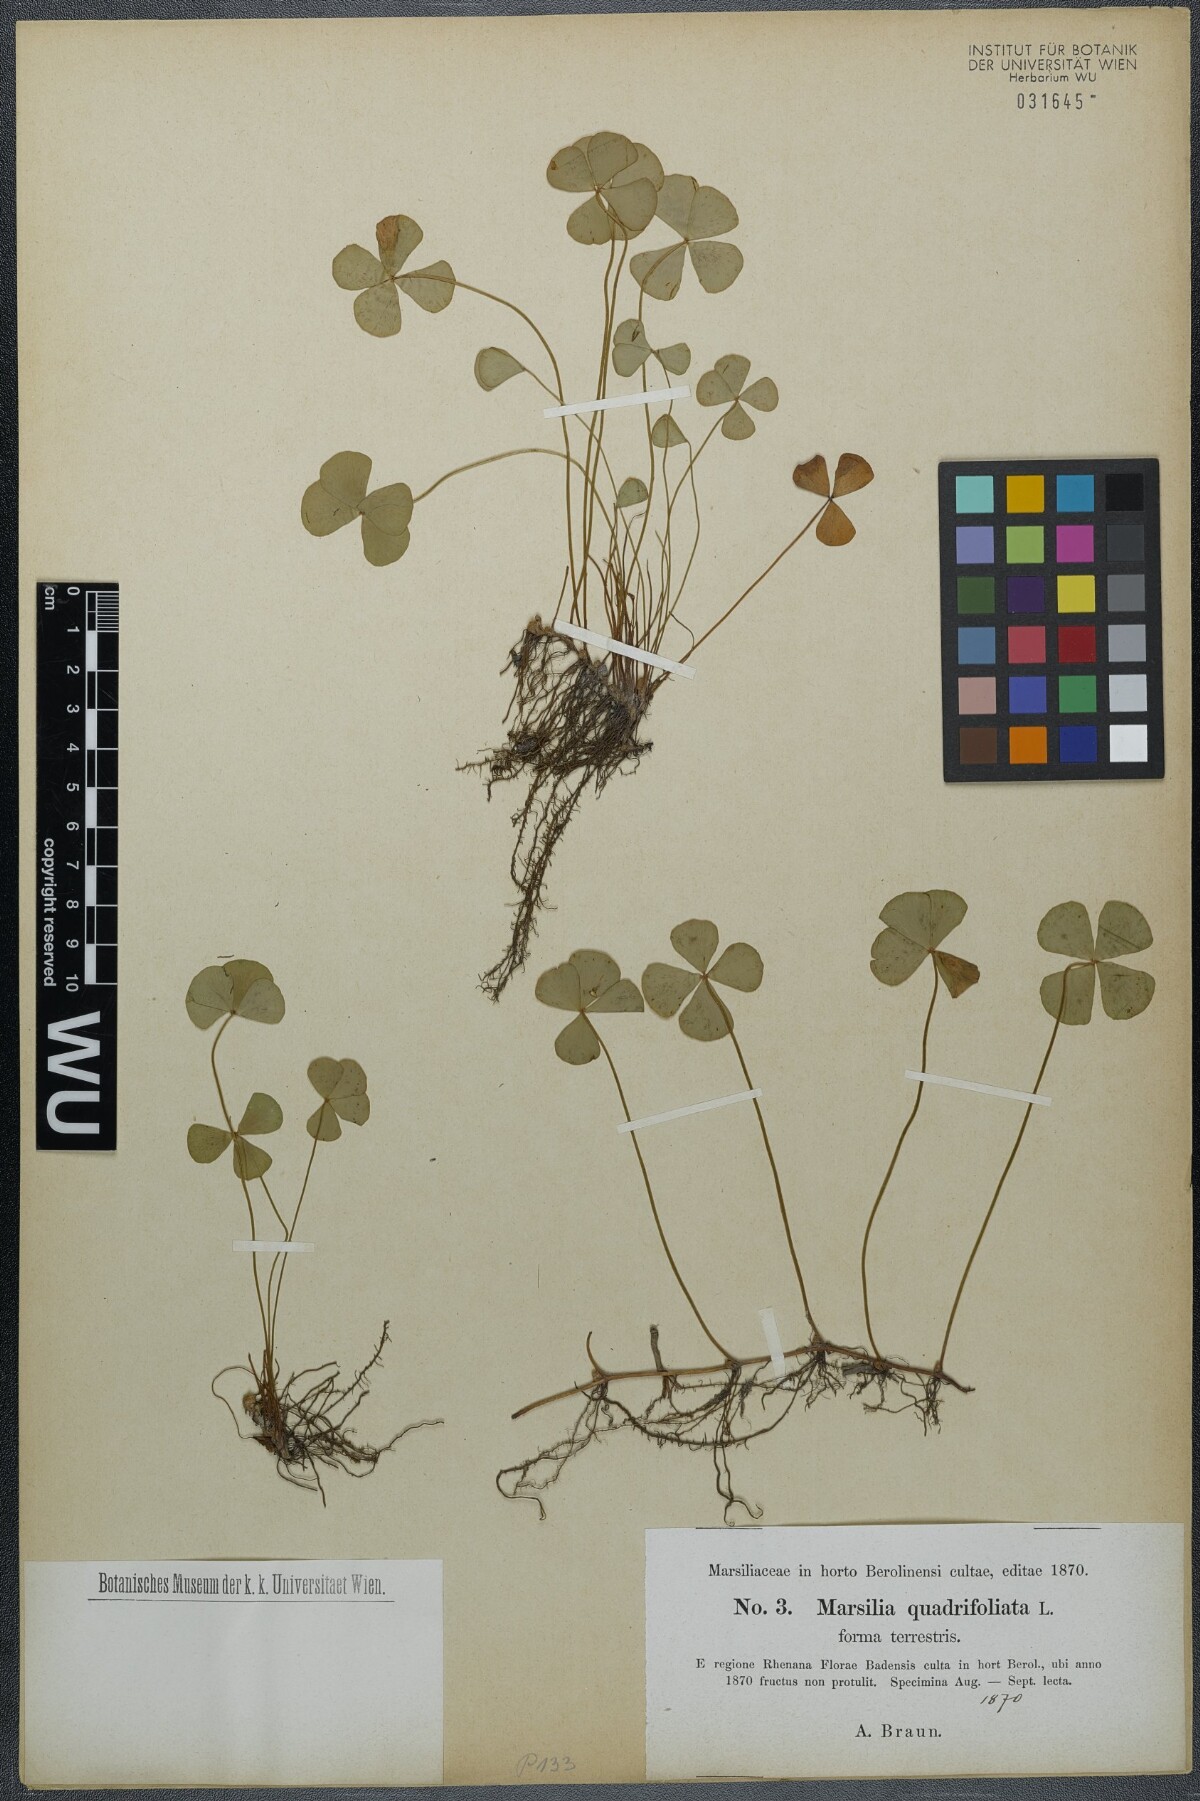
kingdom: Plantae
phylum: Tracheophyta
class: Polypodiopsida
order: Salviniales
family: Marsileaceae
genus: Marsilea
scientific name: Marsilea quadrifolia
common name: Water shamrock
